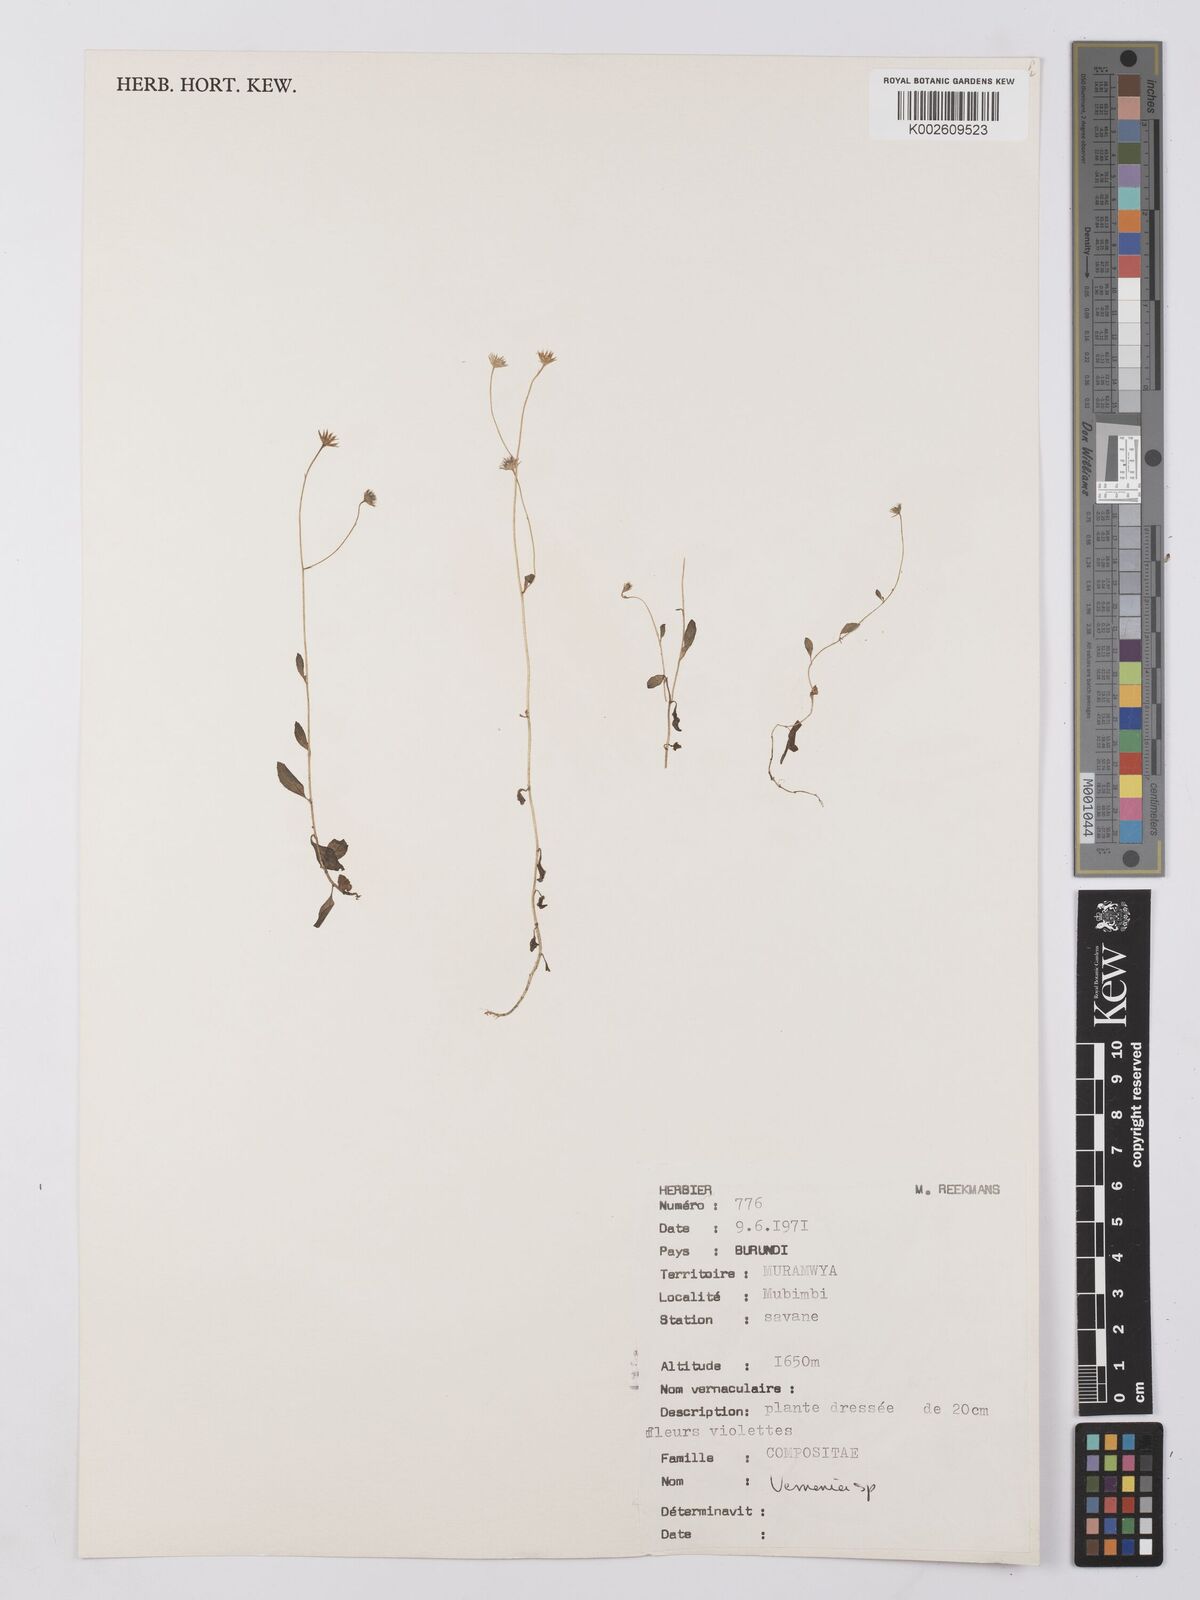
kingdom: Plantae
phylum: Tracheophyta
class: Magnoliopsida
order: Asterales
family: Asteraceae
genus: Vernonia
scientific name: Vernonia
